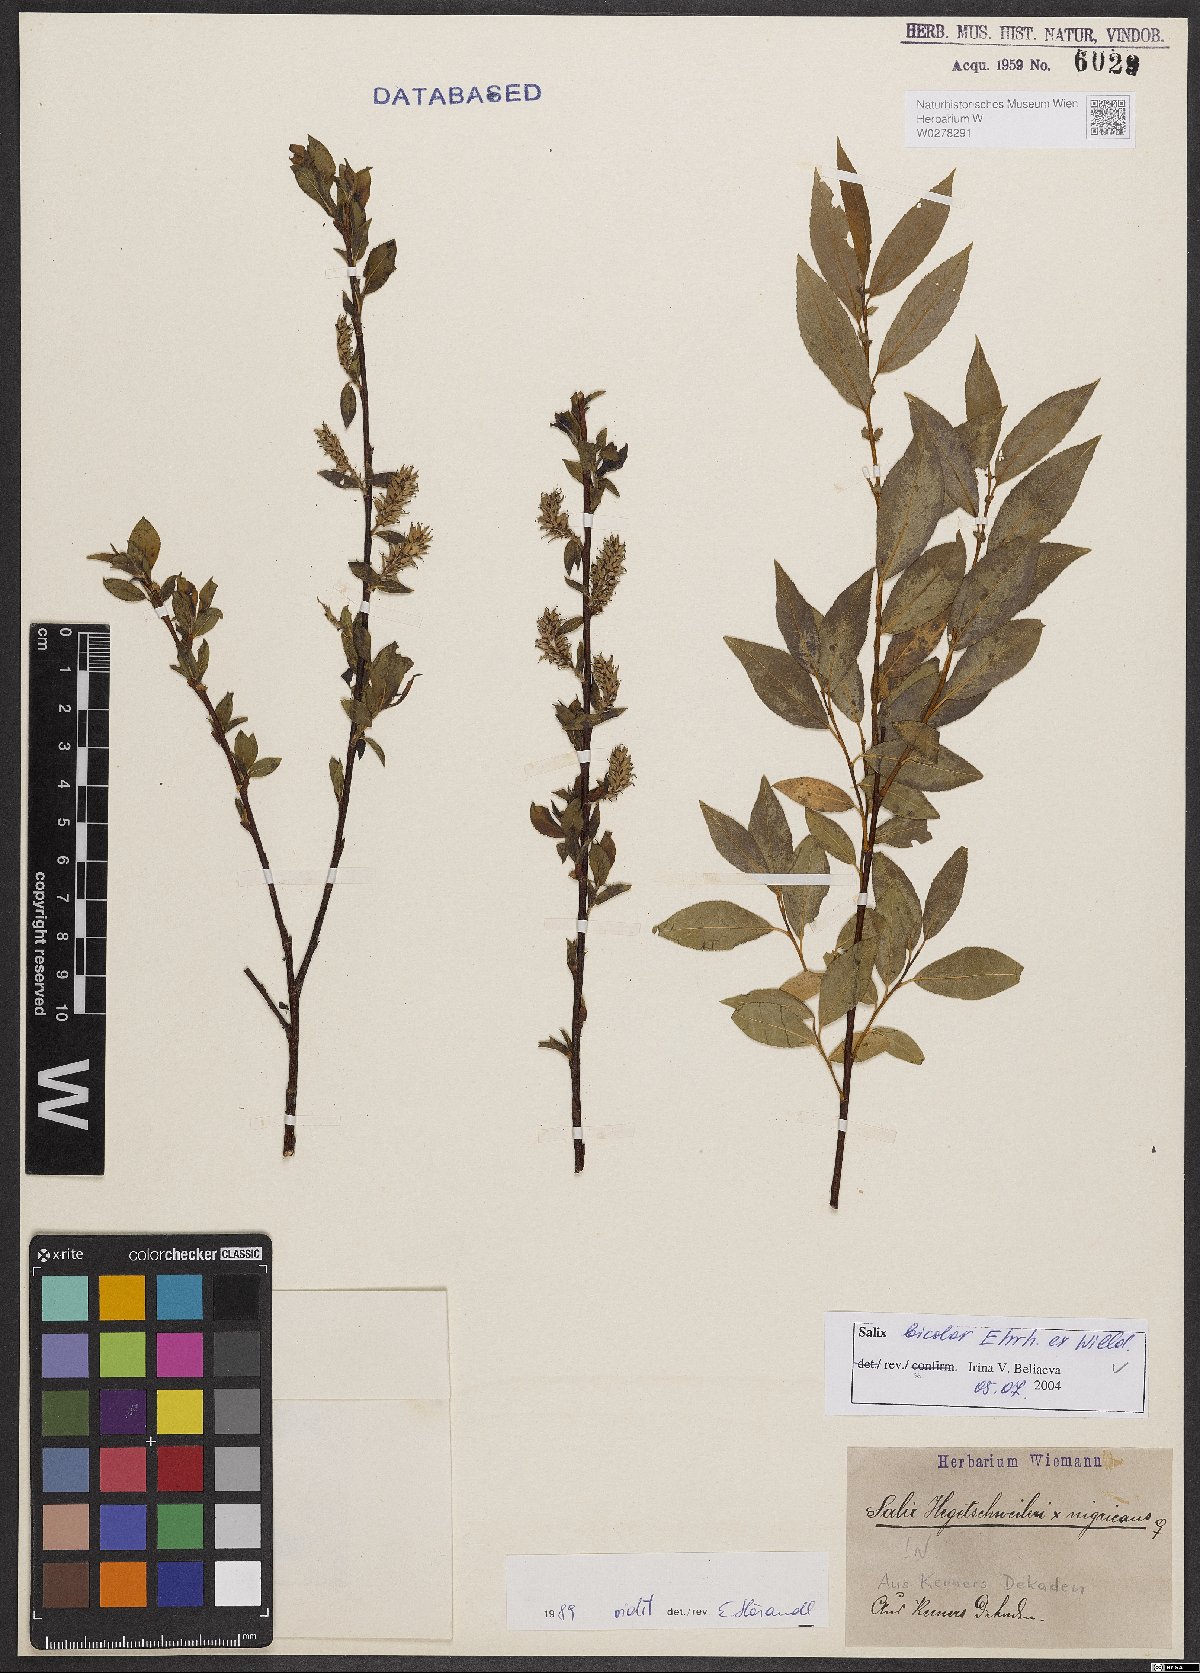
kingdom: Plantae
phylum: Tracheophyta
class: Magnoliopsida
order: Malpighiales
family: Salicaceae
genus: Salix
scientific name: Salix bicolor
